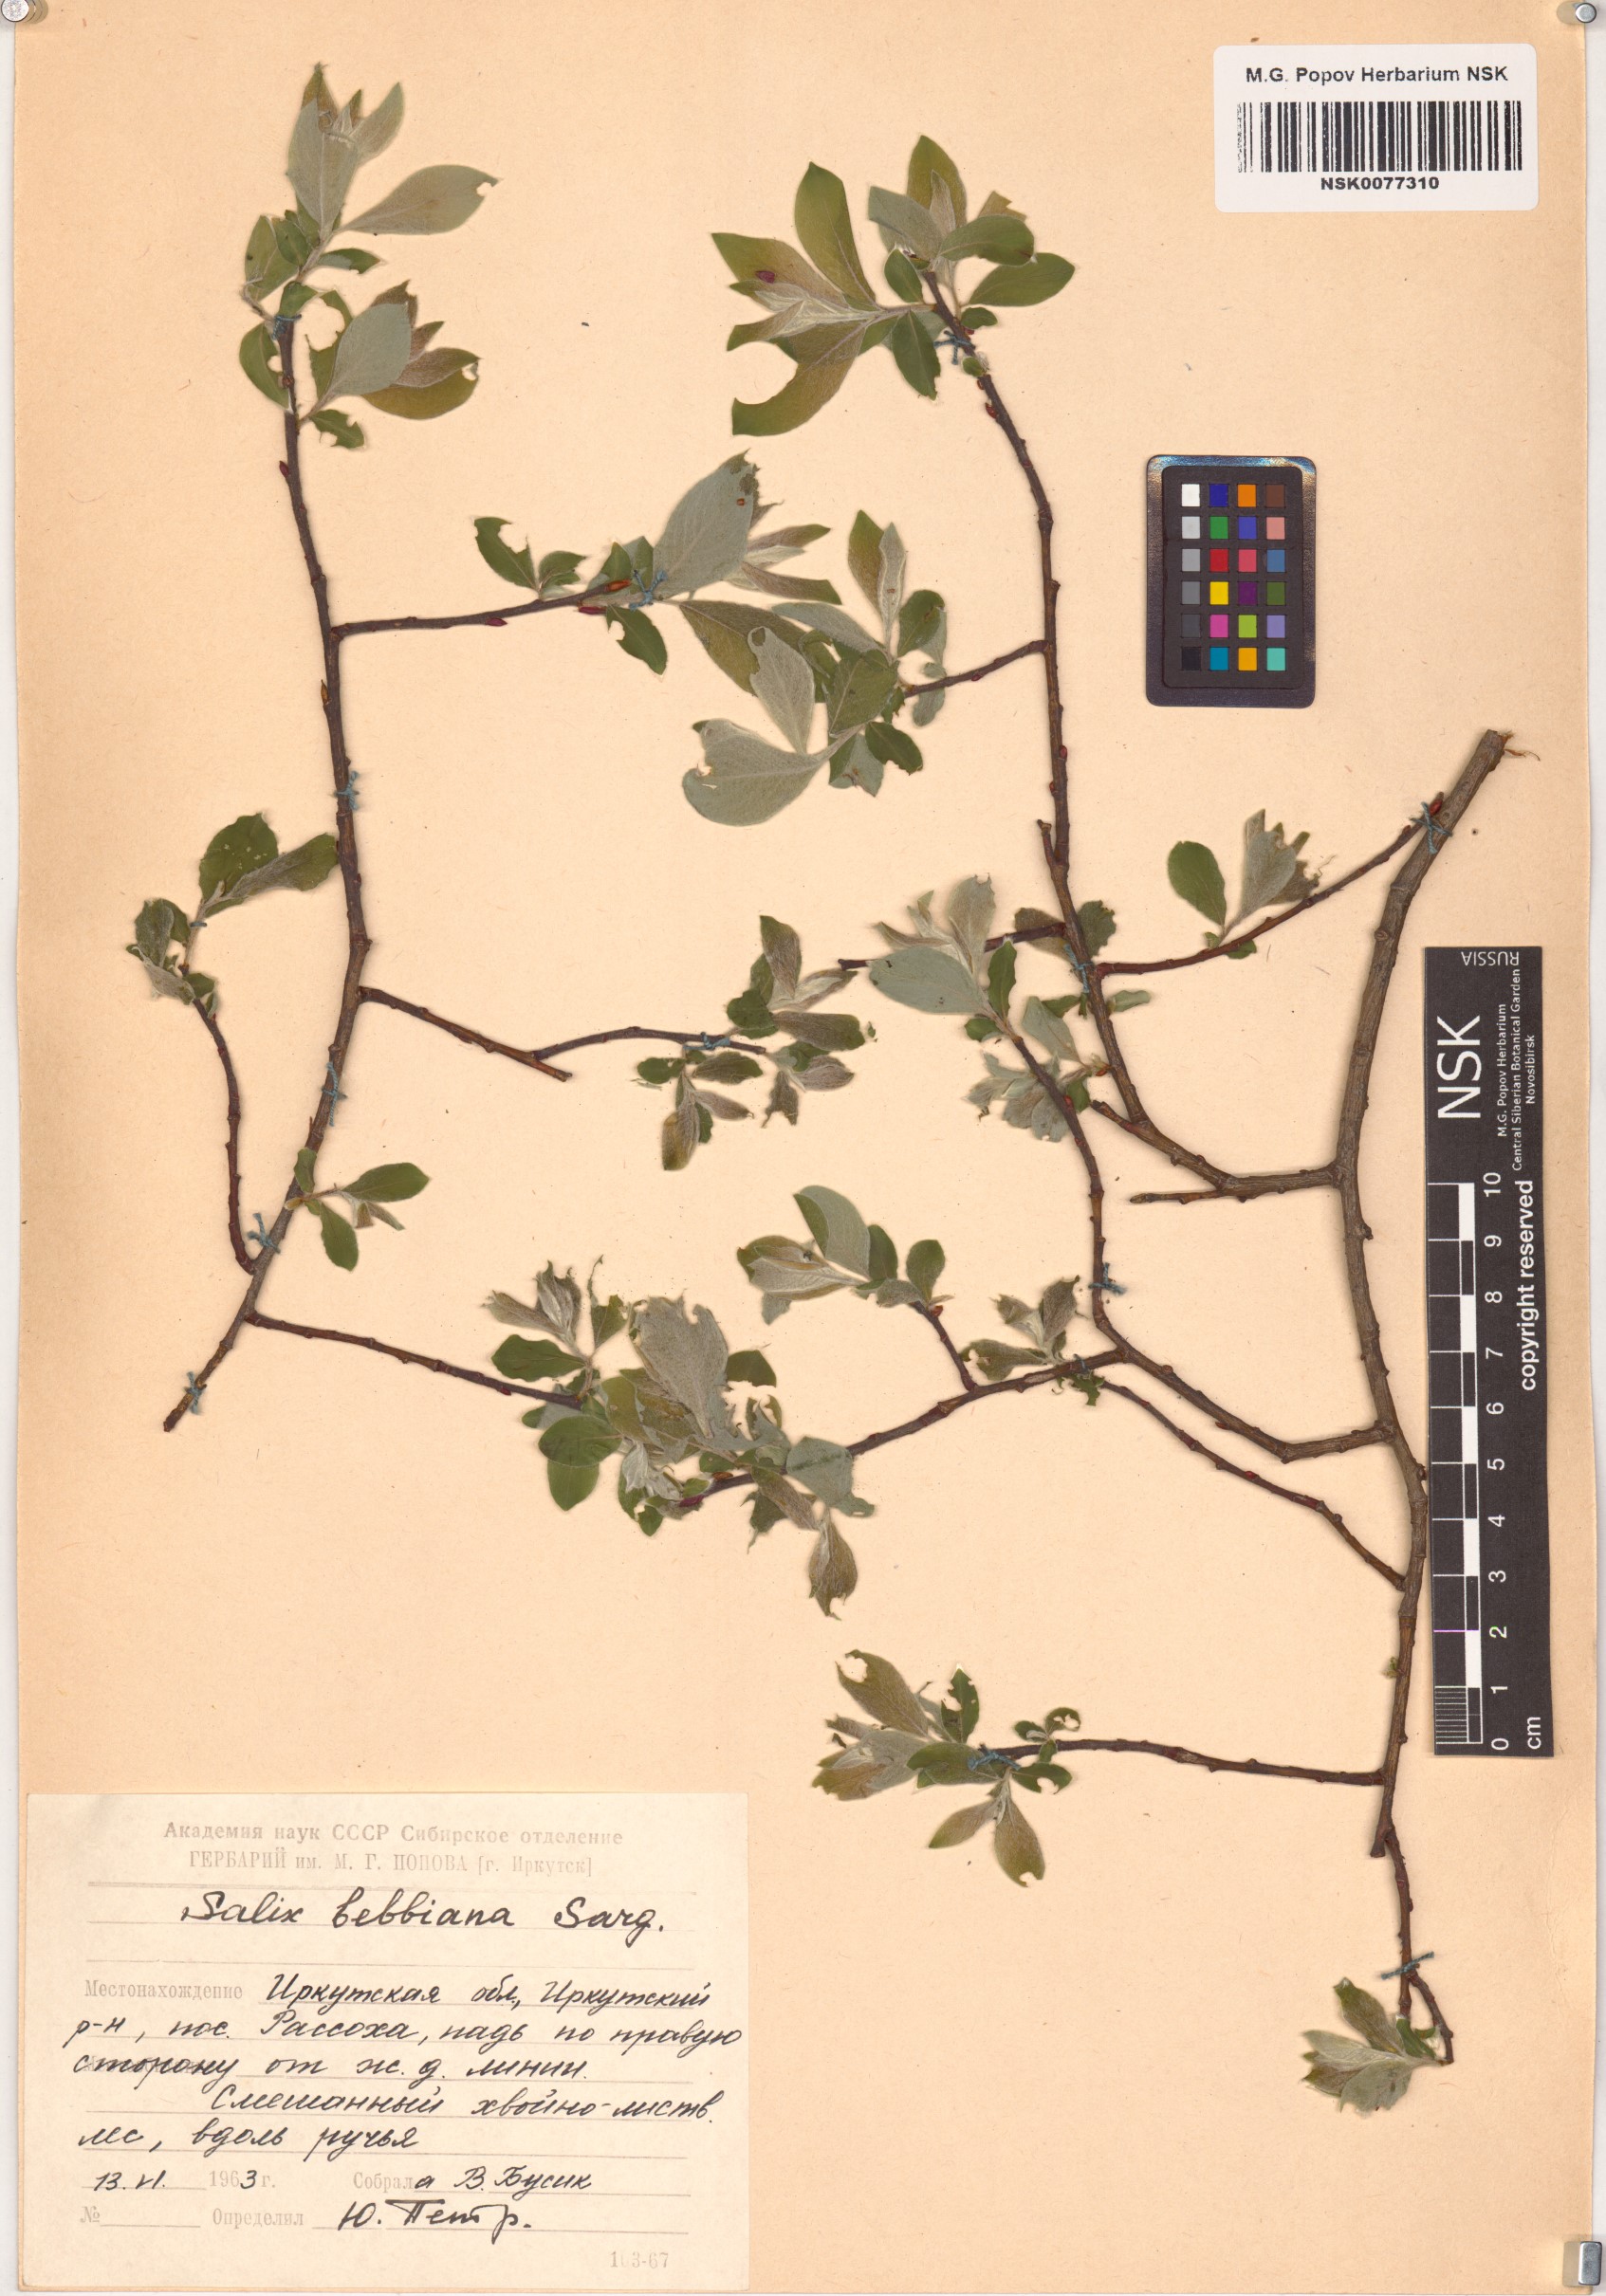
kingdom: Plantae
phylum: Tracheophyta
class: Magnoliopsida
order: Malpighiales
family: Salicaceae
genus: Salix
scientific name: Salix bebbiana
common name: Bebb's willow
